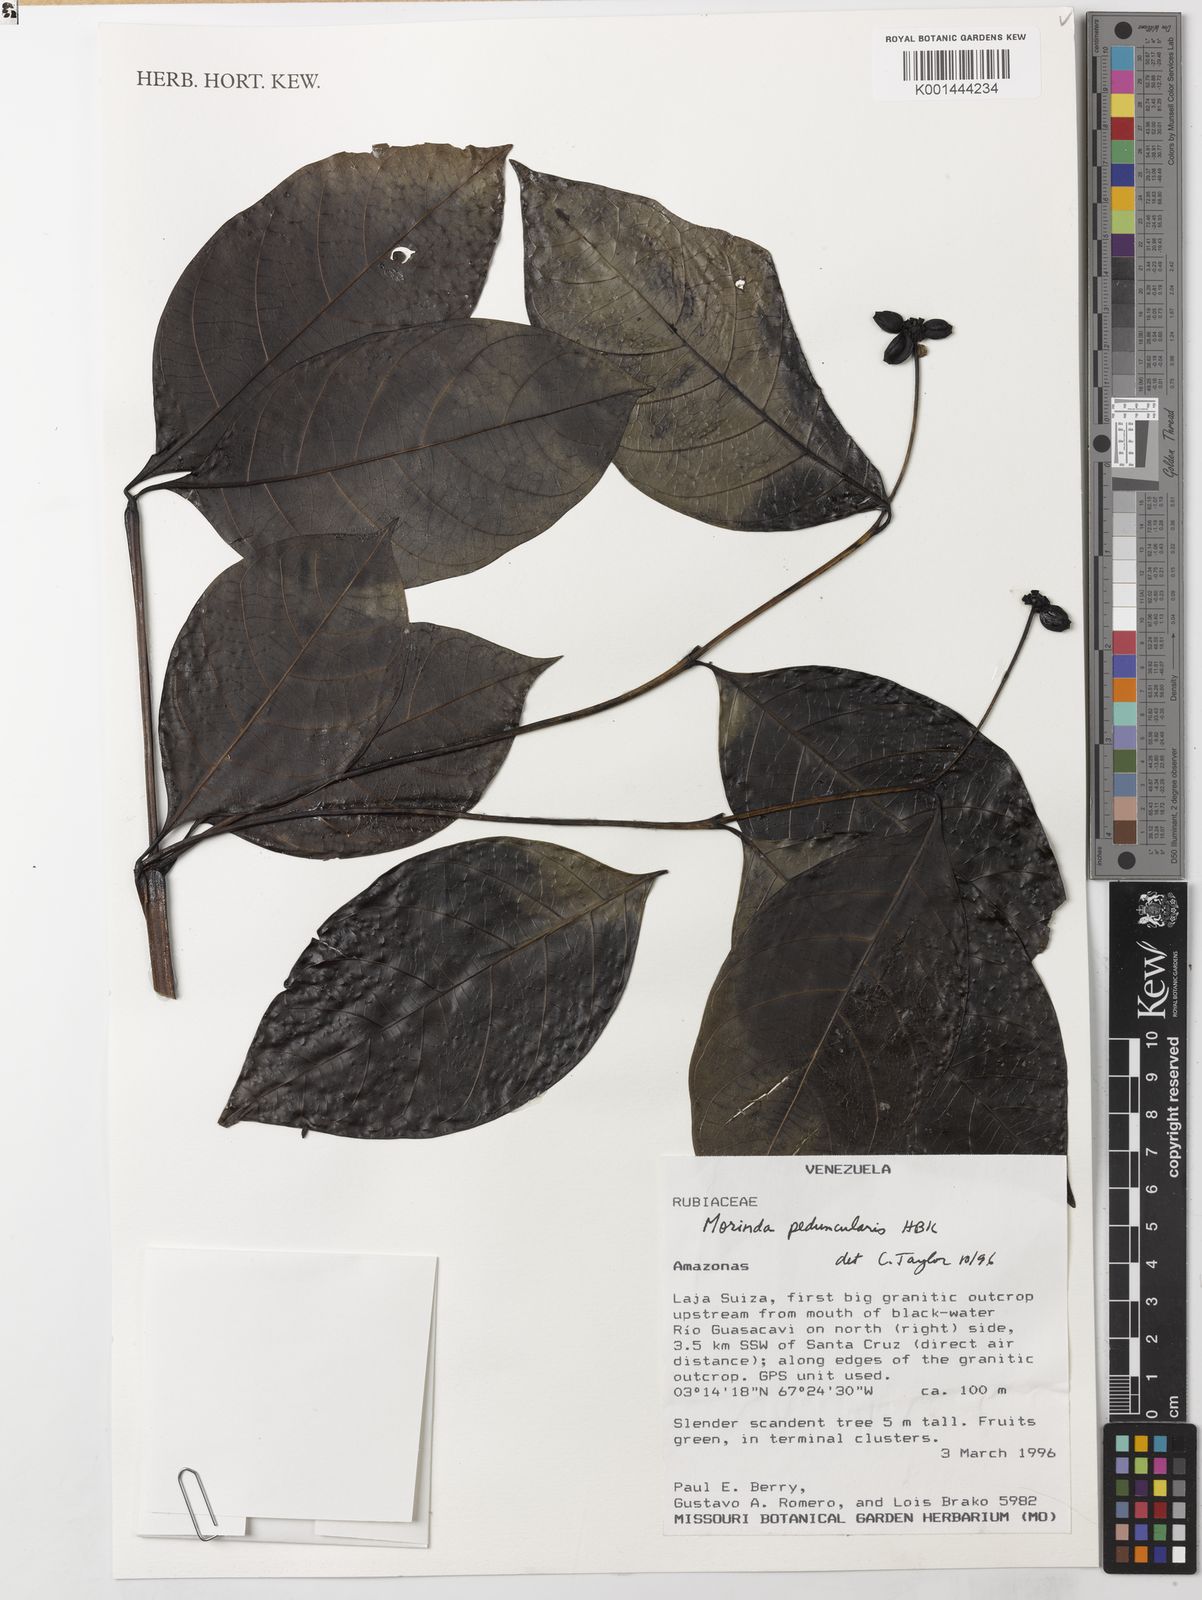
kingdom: Plantae
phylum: Tracheophyta
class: Magnoliopsida
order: Gentianales
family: Rubiaceae
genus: Appunia
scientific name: Appunia peduncularis
